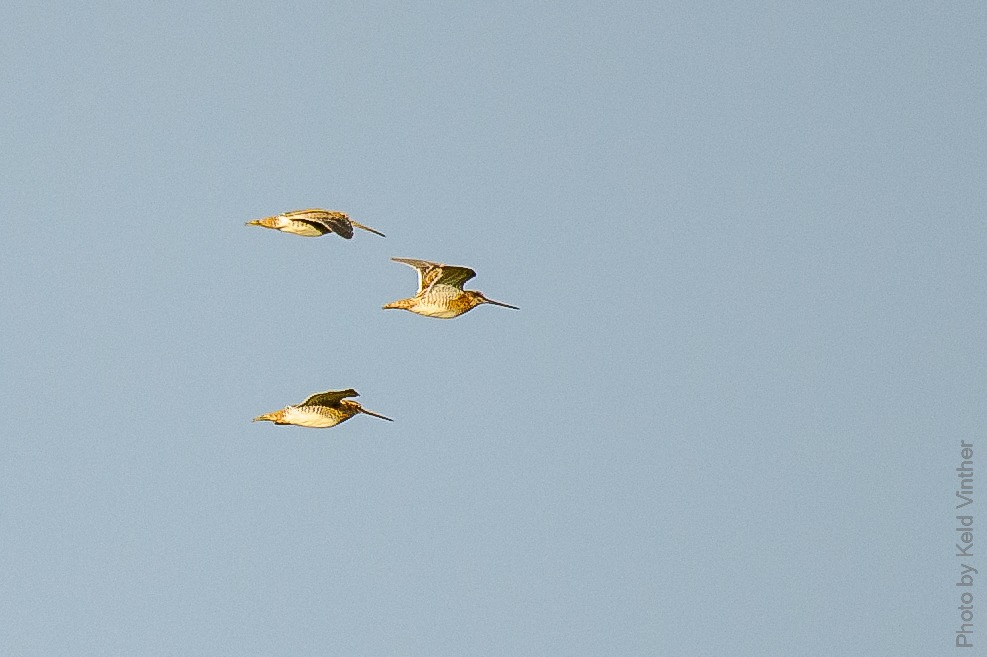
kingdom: Animalia
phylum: Chordata
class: Aves
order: Charadriiformes
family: Scolopacidae
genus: Gallinago
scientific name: Gallinago gallinago
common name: Dobbeltbekkasin
